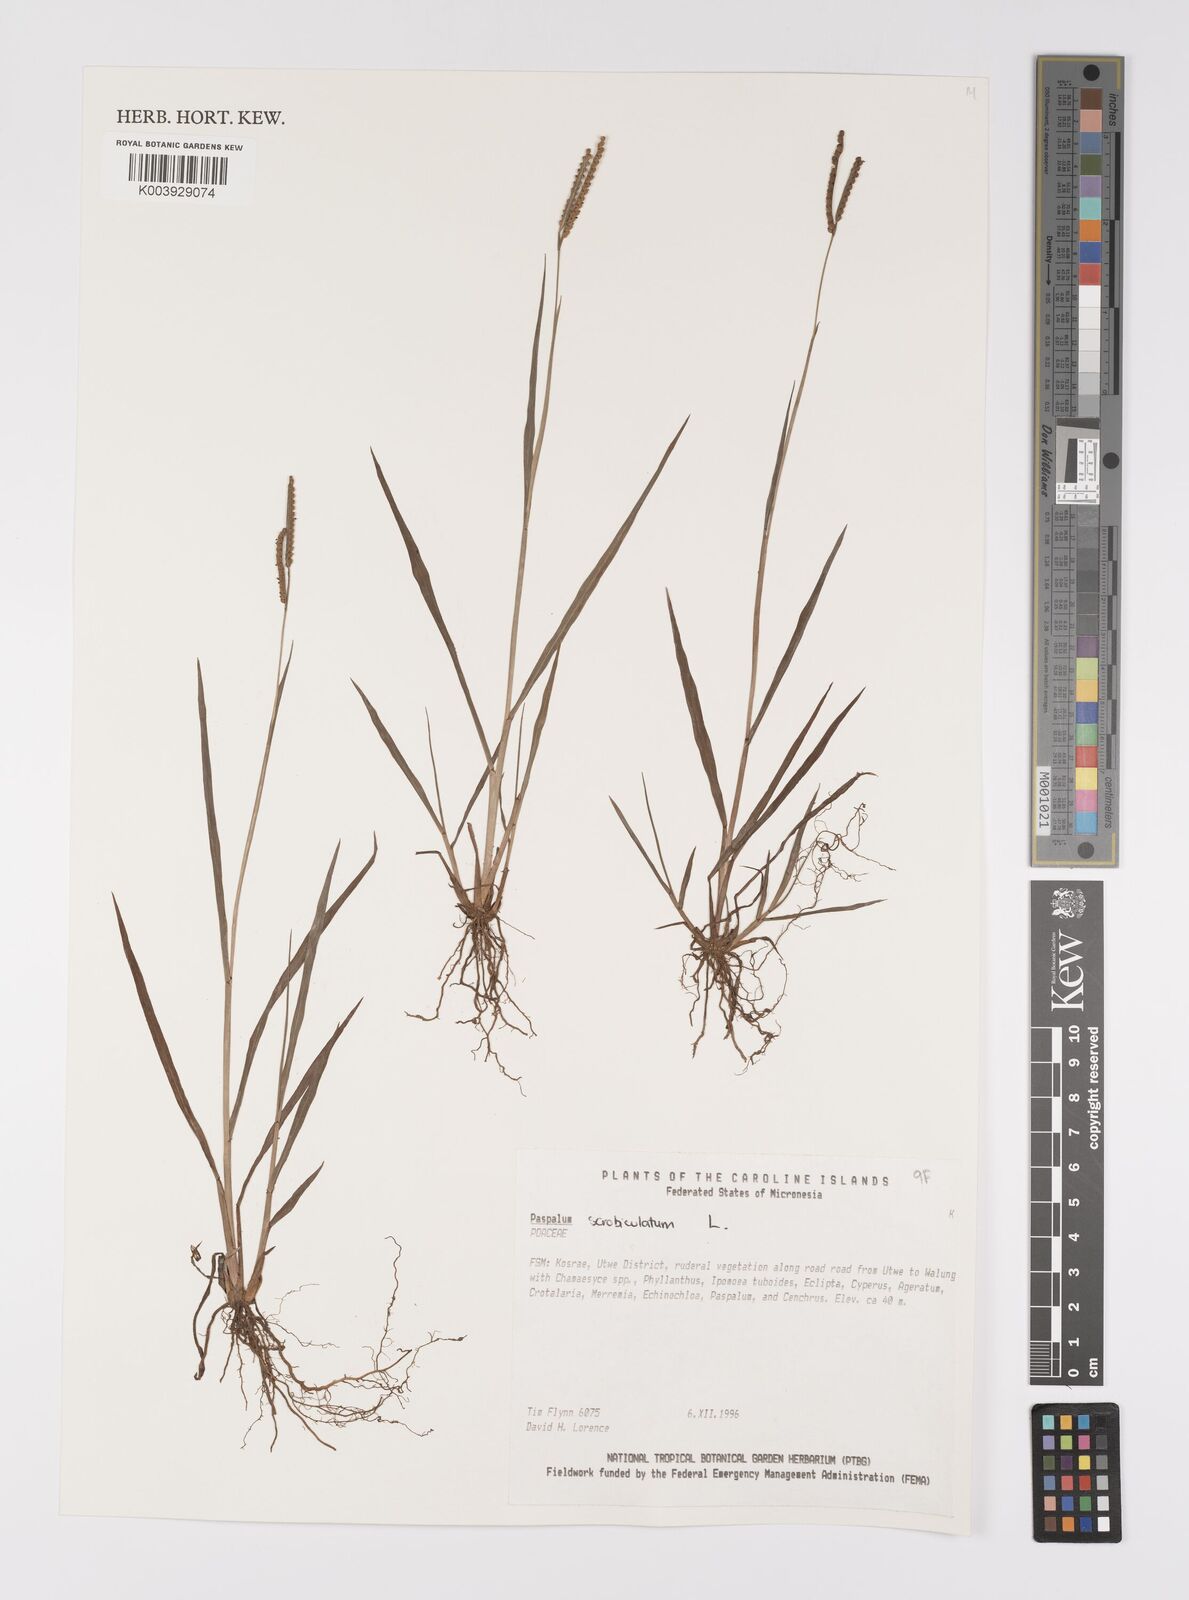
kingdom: Plantae
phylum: Tracheophyta
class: Liliopsida
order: Poales
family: Poaceae
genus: Paspalum
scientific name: Paspalum
